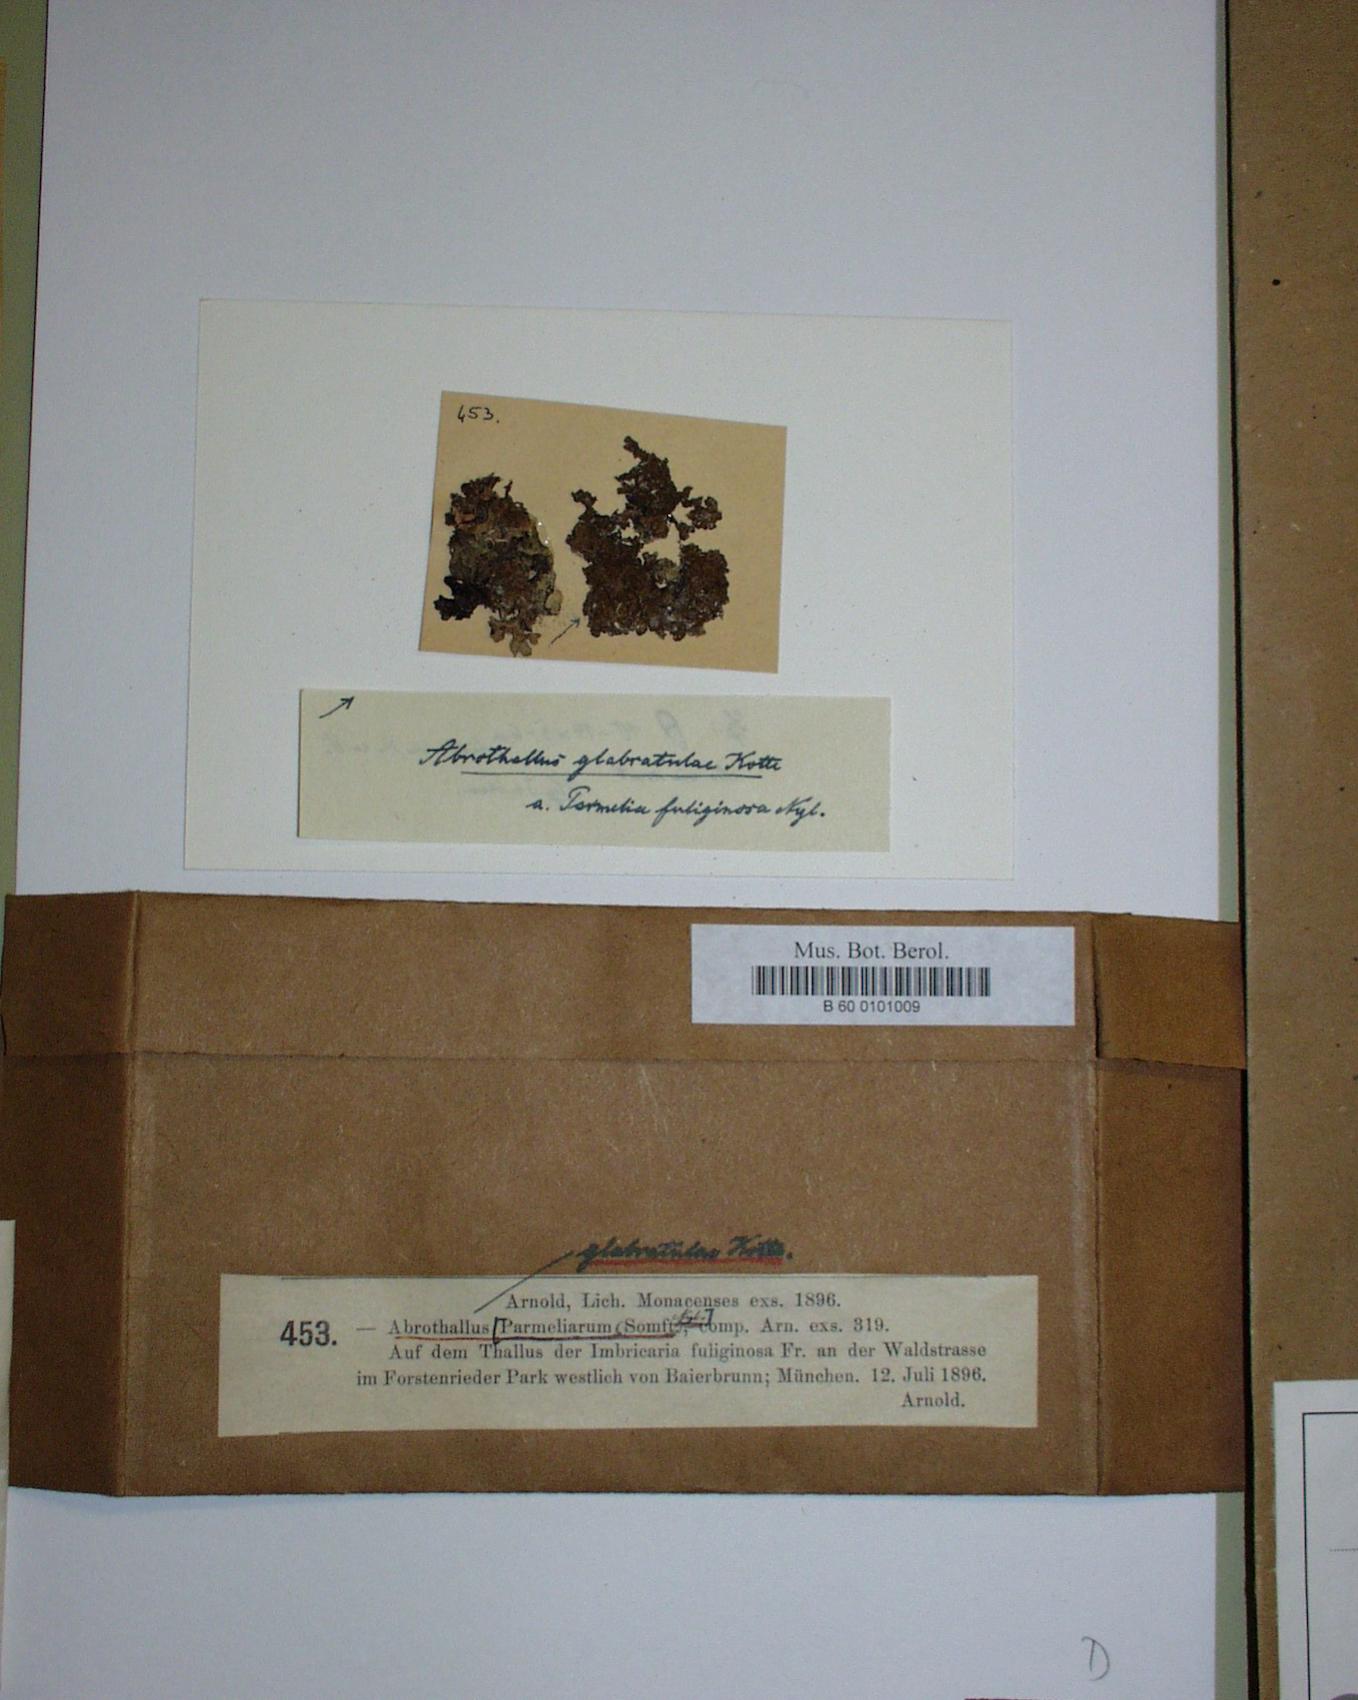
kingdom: Fungi
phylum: Ascomycota
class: Dothideomycetes
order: Abrothallales
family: Abrothallaceae
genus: Abrothallus
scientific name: Abrothallus parmeliarum
